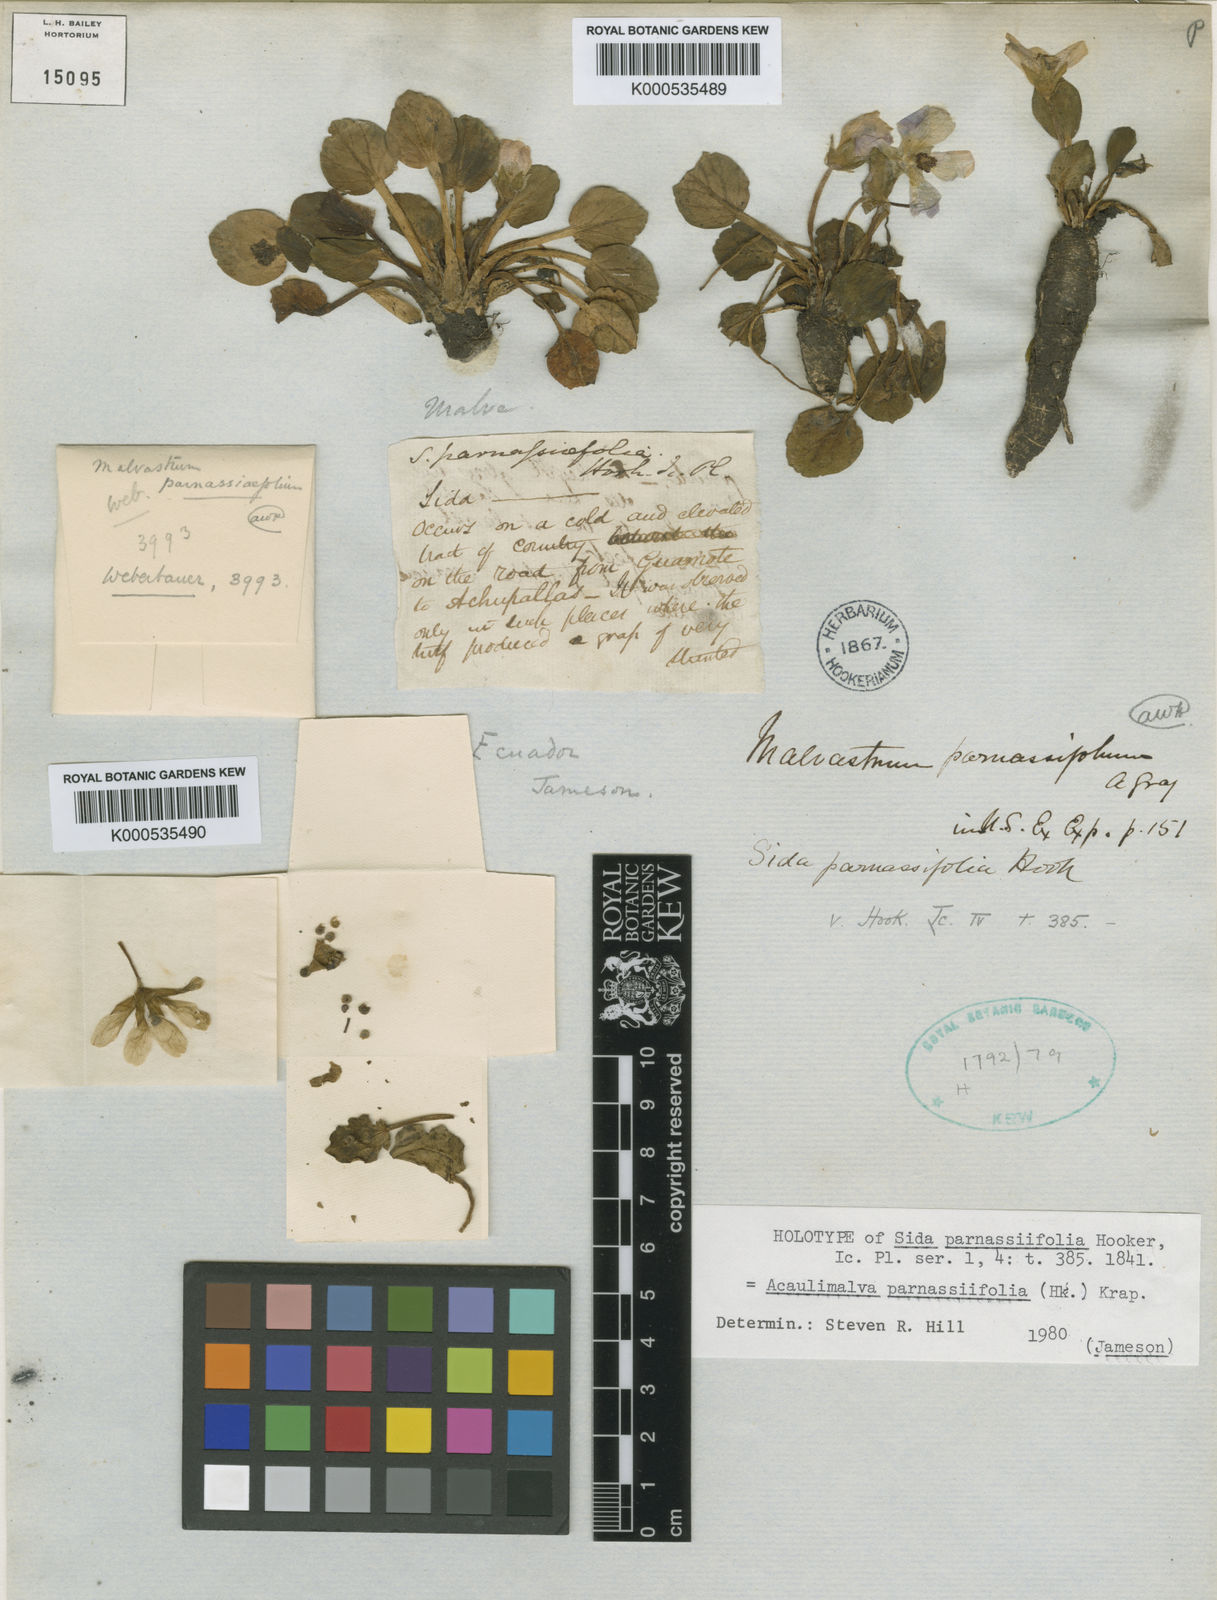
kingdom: Plantae
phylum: Tracheophyta
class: Magnoliopsida
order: Malvales
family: Malvaceae
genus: Acaulimalva
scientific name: Acaulimalva parnassiifolia
